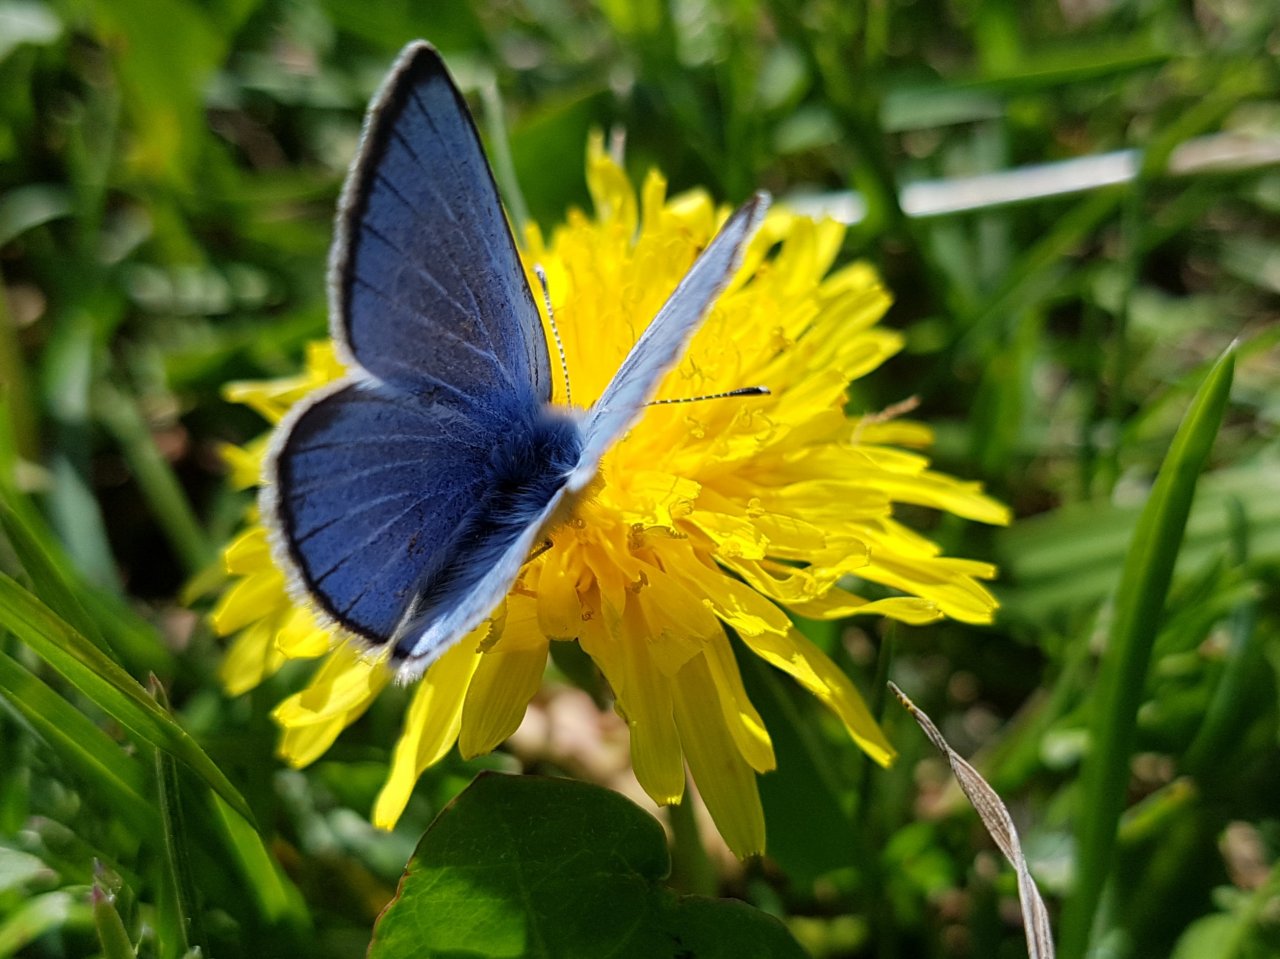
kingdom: Animalia
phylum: Arthropoda
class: Insecta
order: Lepidoptera
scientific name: Lepidoptera
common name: Butterflies
